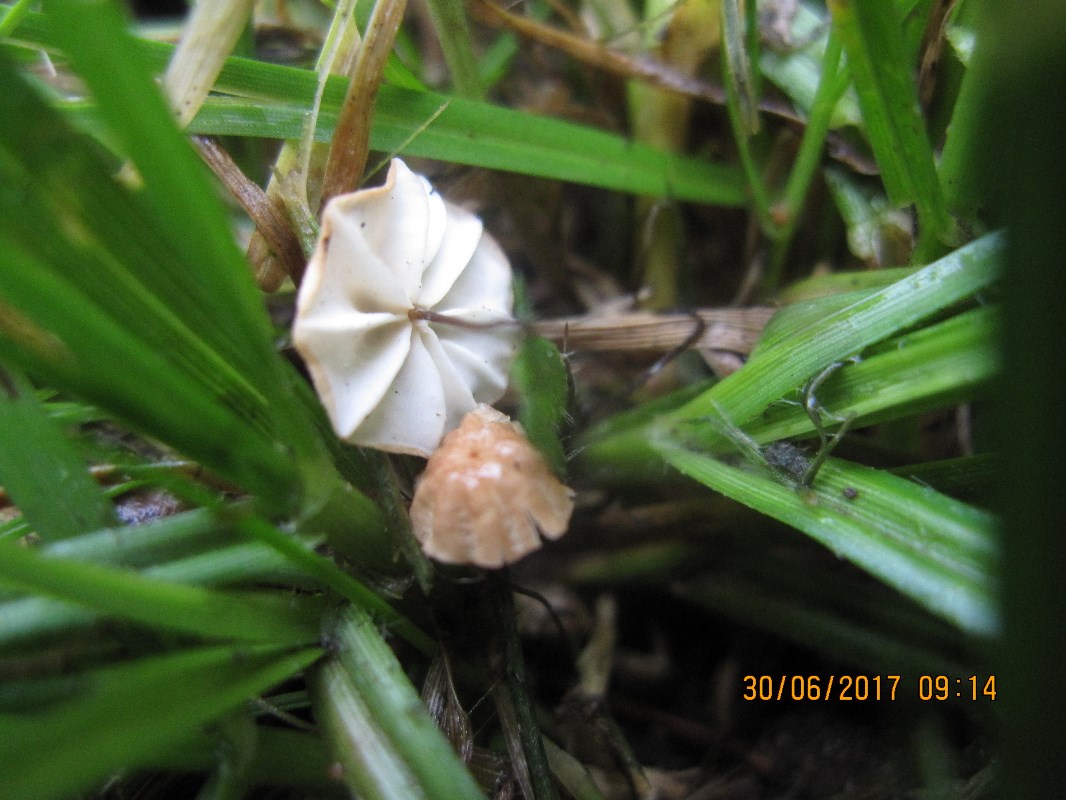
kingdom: Fungi
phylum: Basidiomycota
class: Agaricomycetes
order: Agaricales
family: Marasmiaceae
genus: Marasmius
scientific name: Marasmius curreyi
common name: teglrød bruskhat
